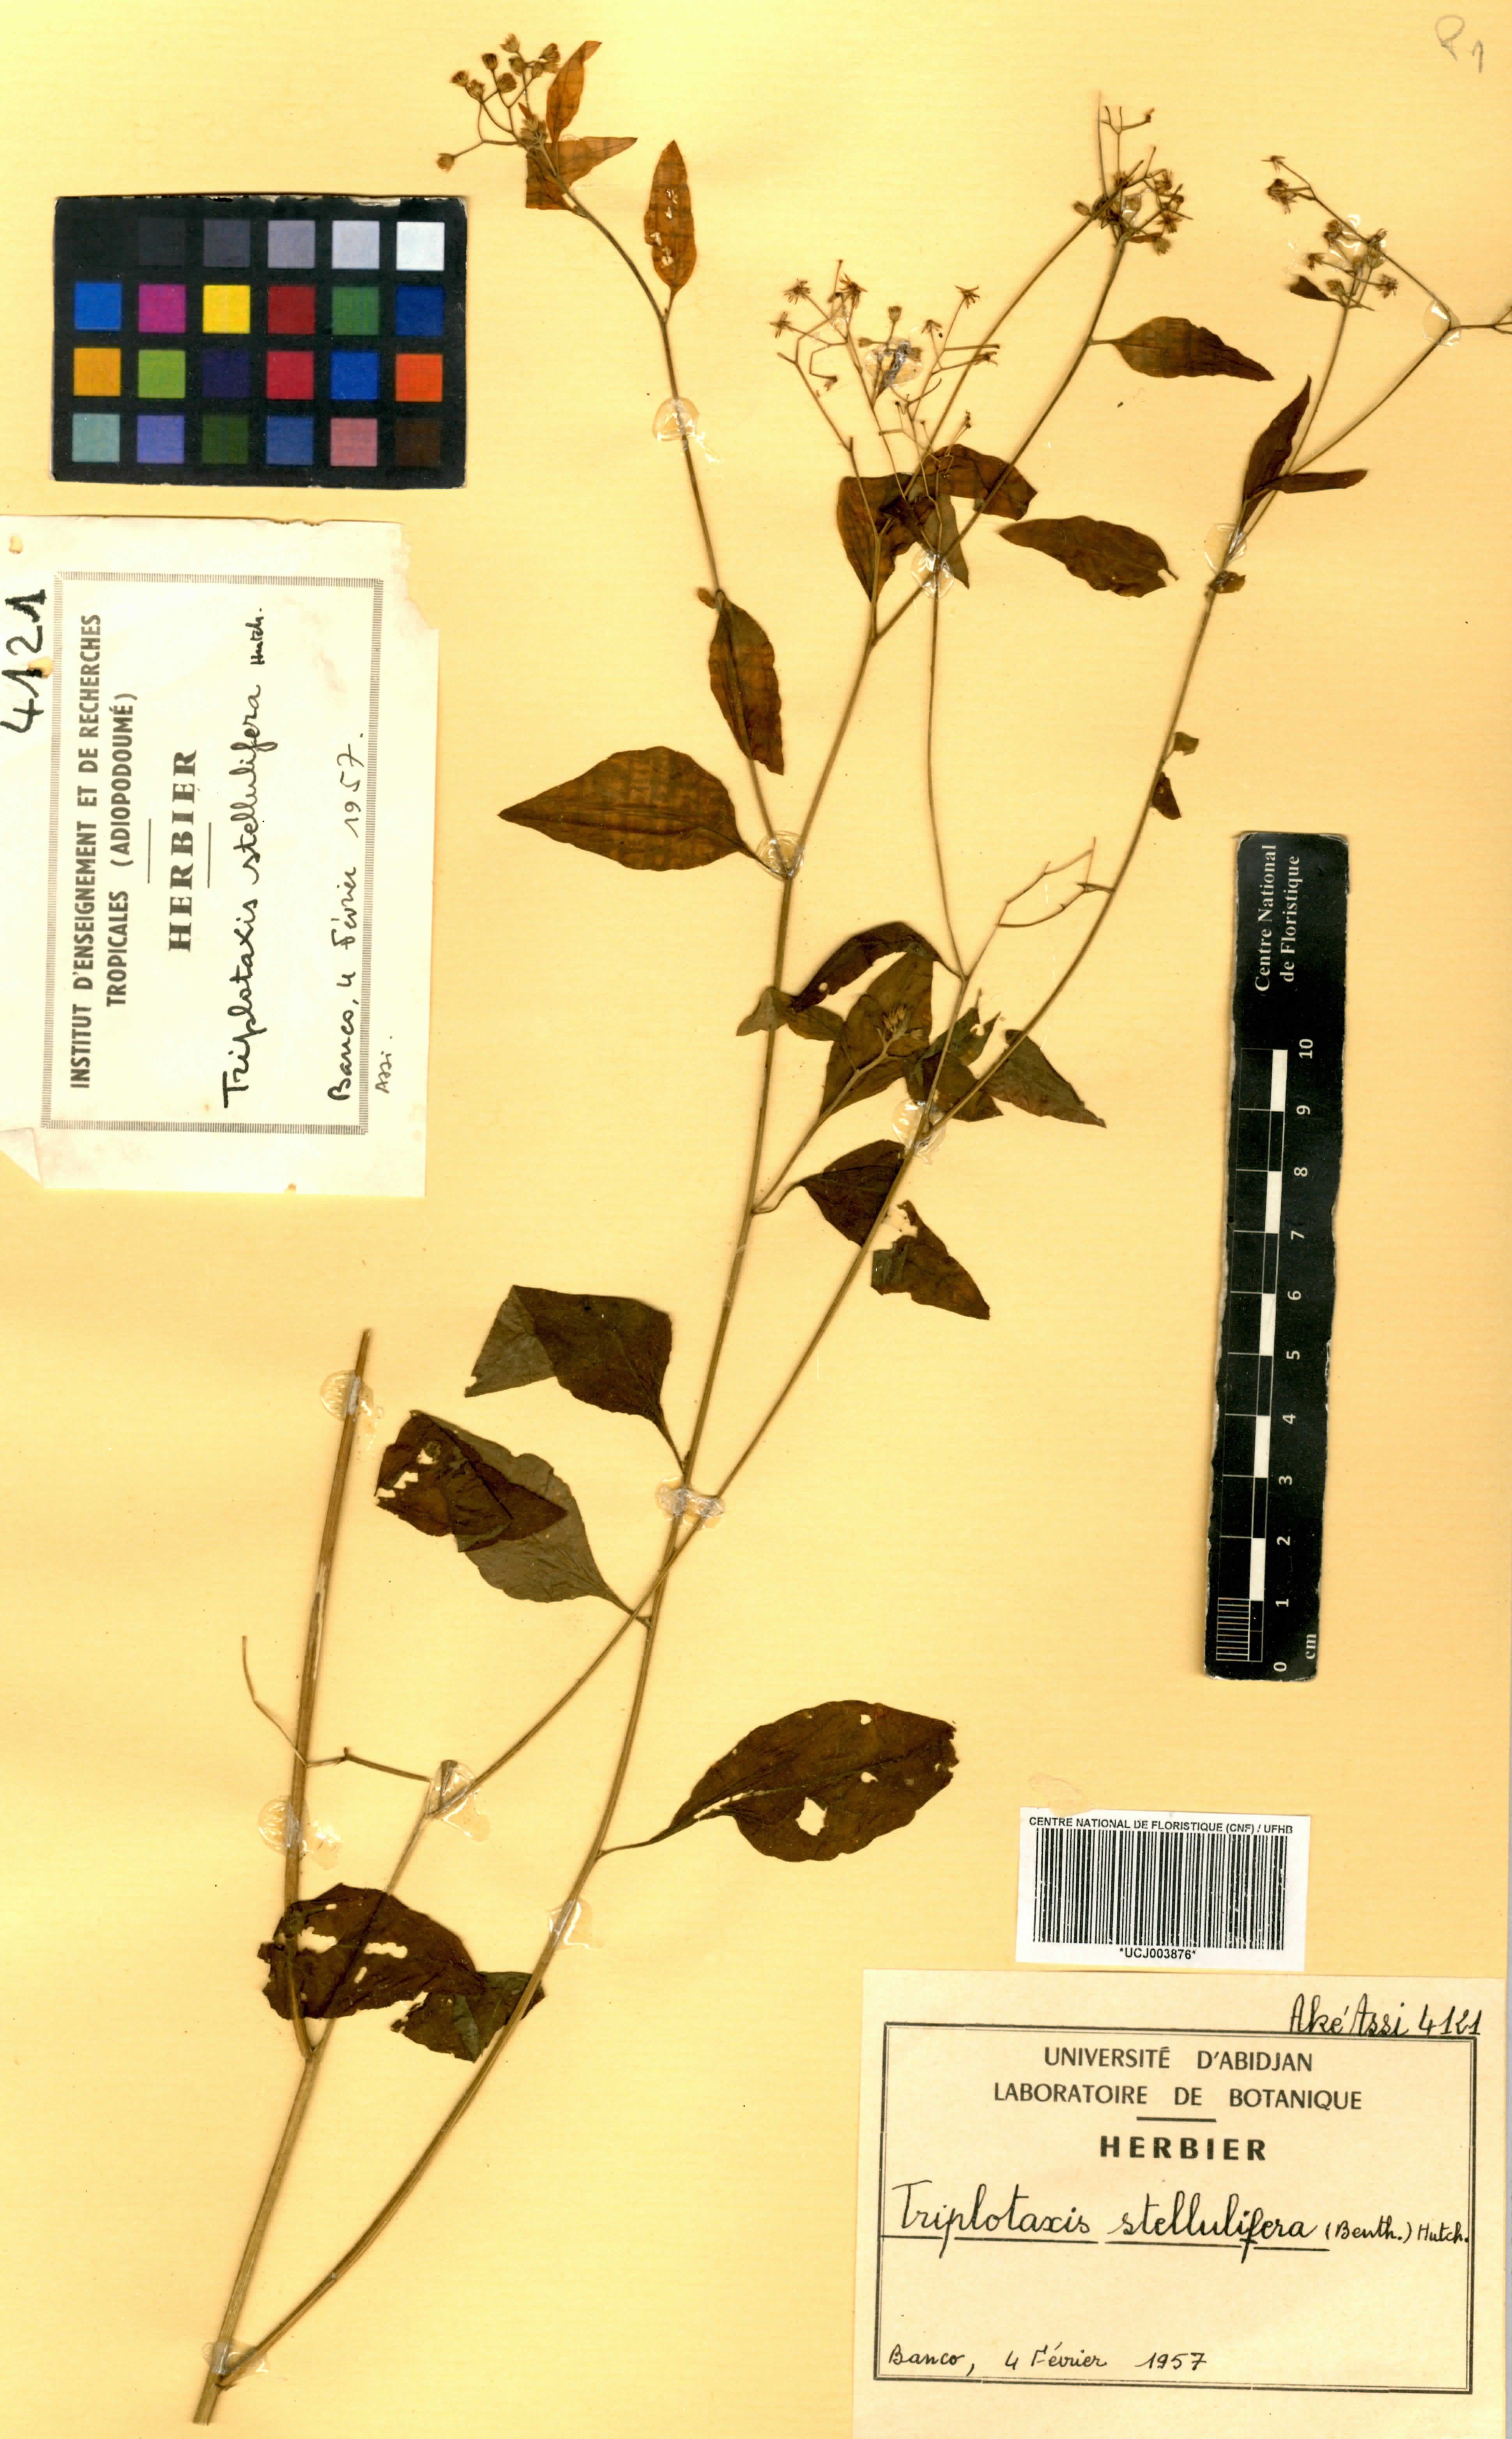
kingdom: Plantae
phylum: Tracheophyta
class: Magnoliopsida
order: Asterales
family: Asteraceae
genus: Cyanthillium
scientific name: Cyanthillium stelluliferum
